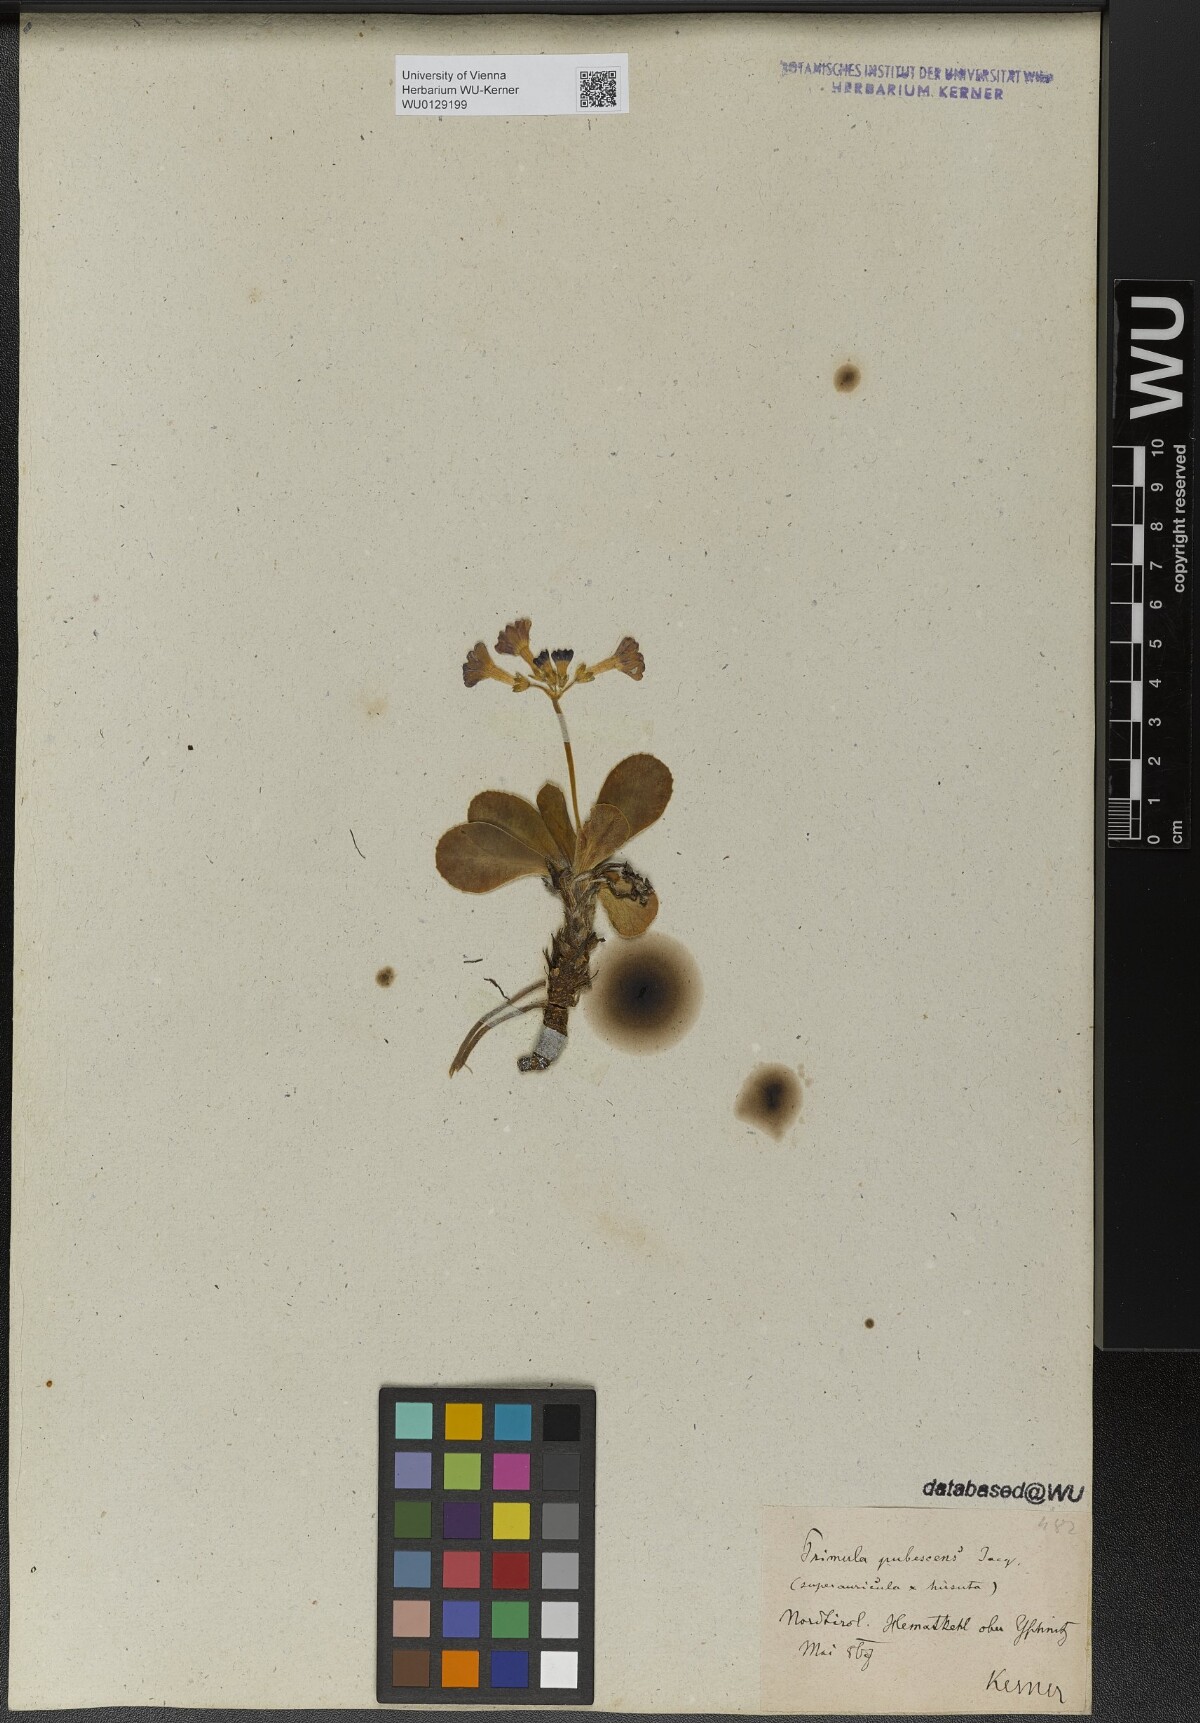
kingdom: Plantae
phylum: Tracheophyta
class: Magnoliopsida
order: Ericales
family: Primulaceae
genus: Primula
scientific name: Primula pubescens
